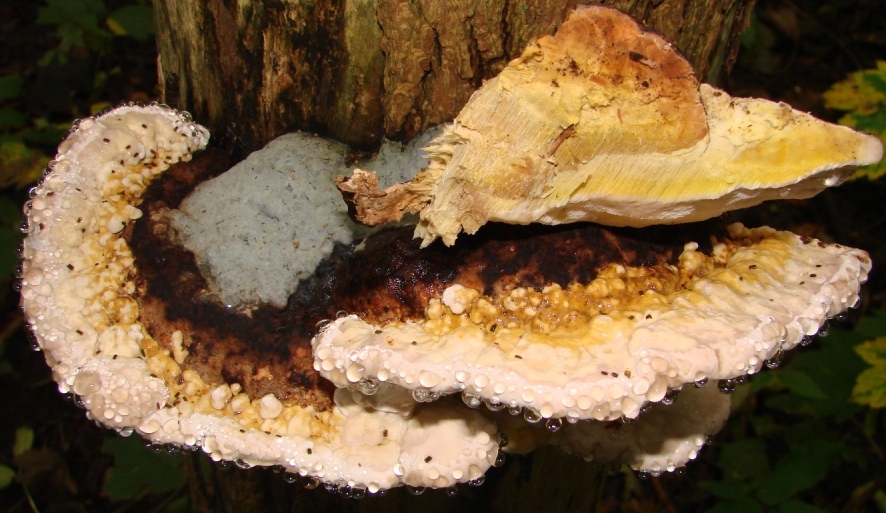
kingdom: Fungi
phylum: Basidiomycota
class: Agaricomycetes
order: Polyporales
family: Fomitopsidaceae
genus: Fomitopsis
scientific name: Fomitopsis pinicola
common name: randbæltet hovporesvamp
